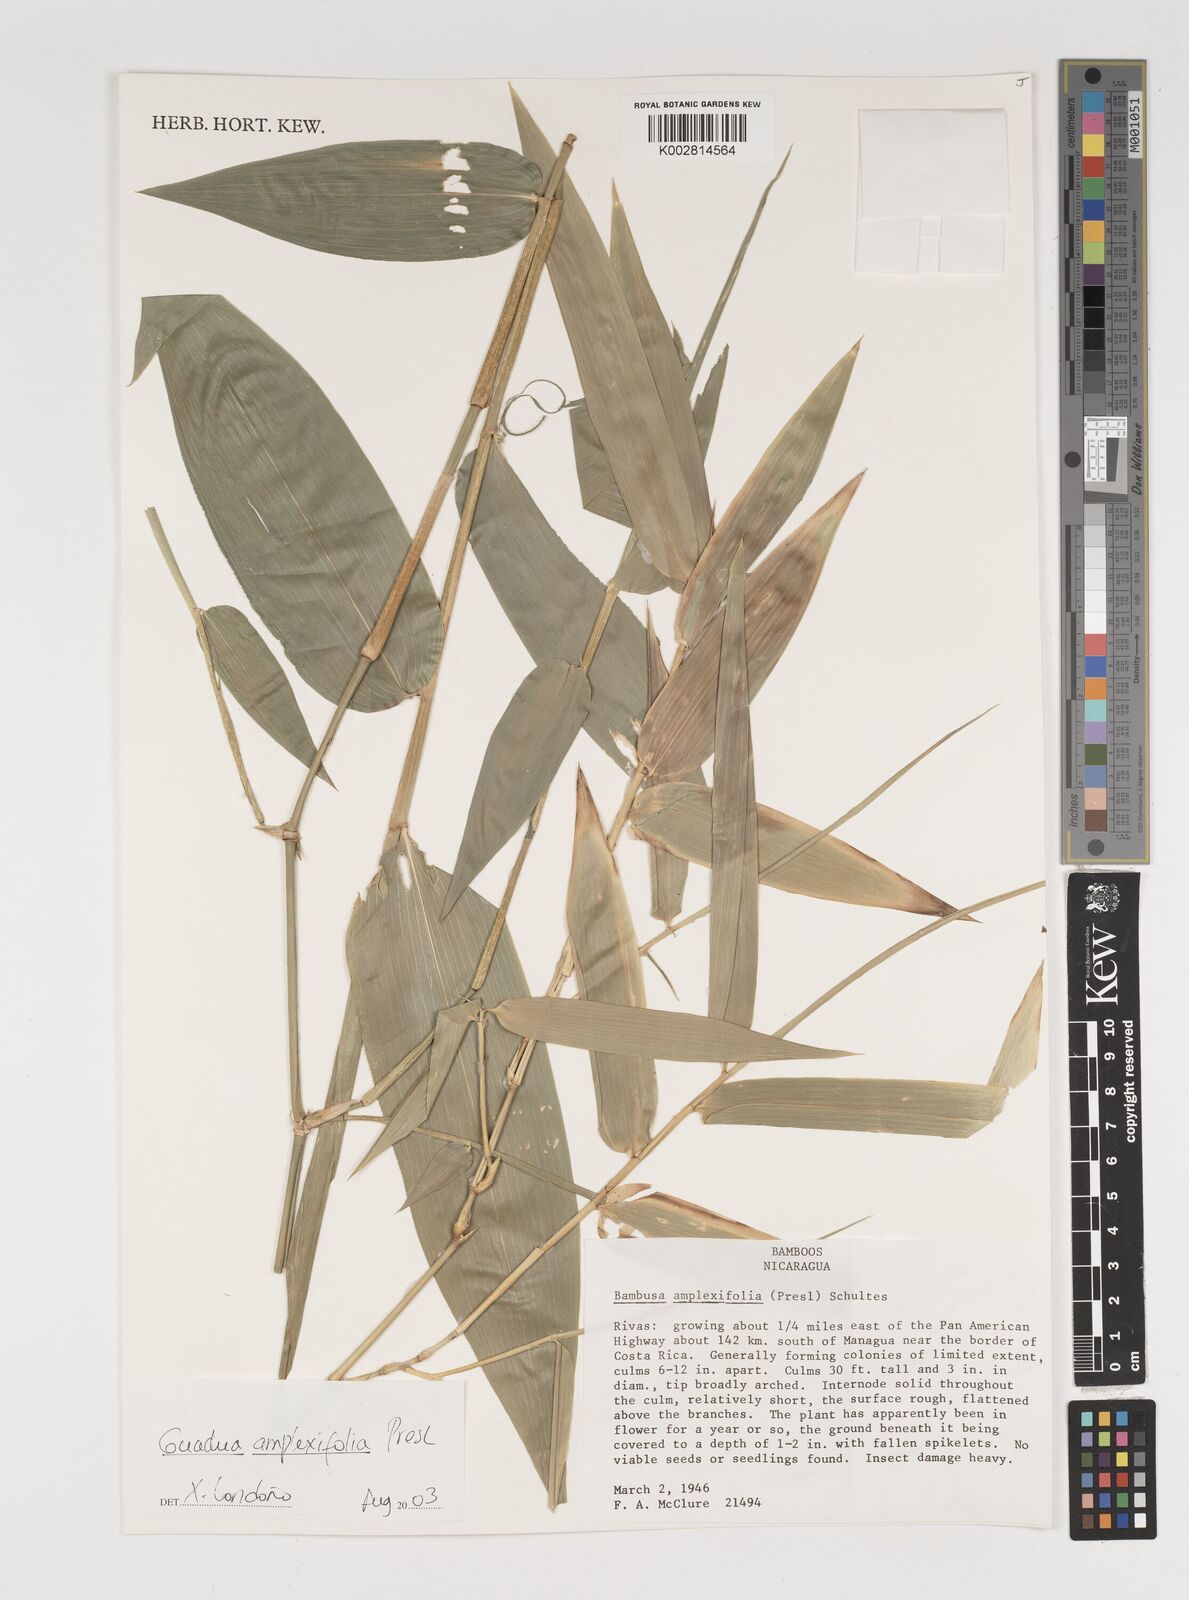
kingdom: Plantae
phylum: Tracheophyta
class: Liliopsida
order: Poales
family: Poaceae
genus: Guadua
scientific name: Guadua amplexifolia
